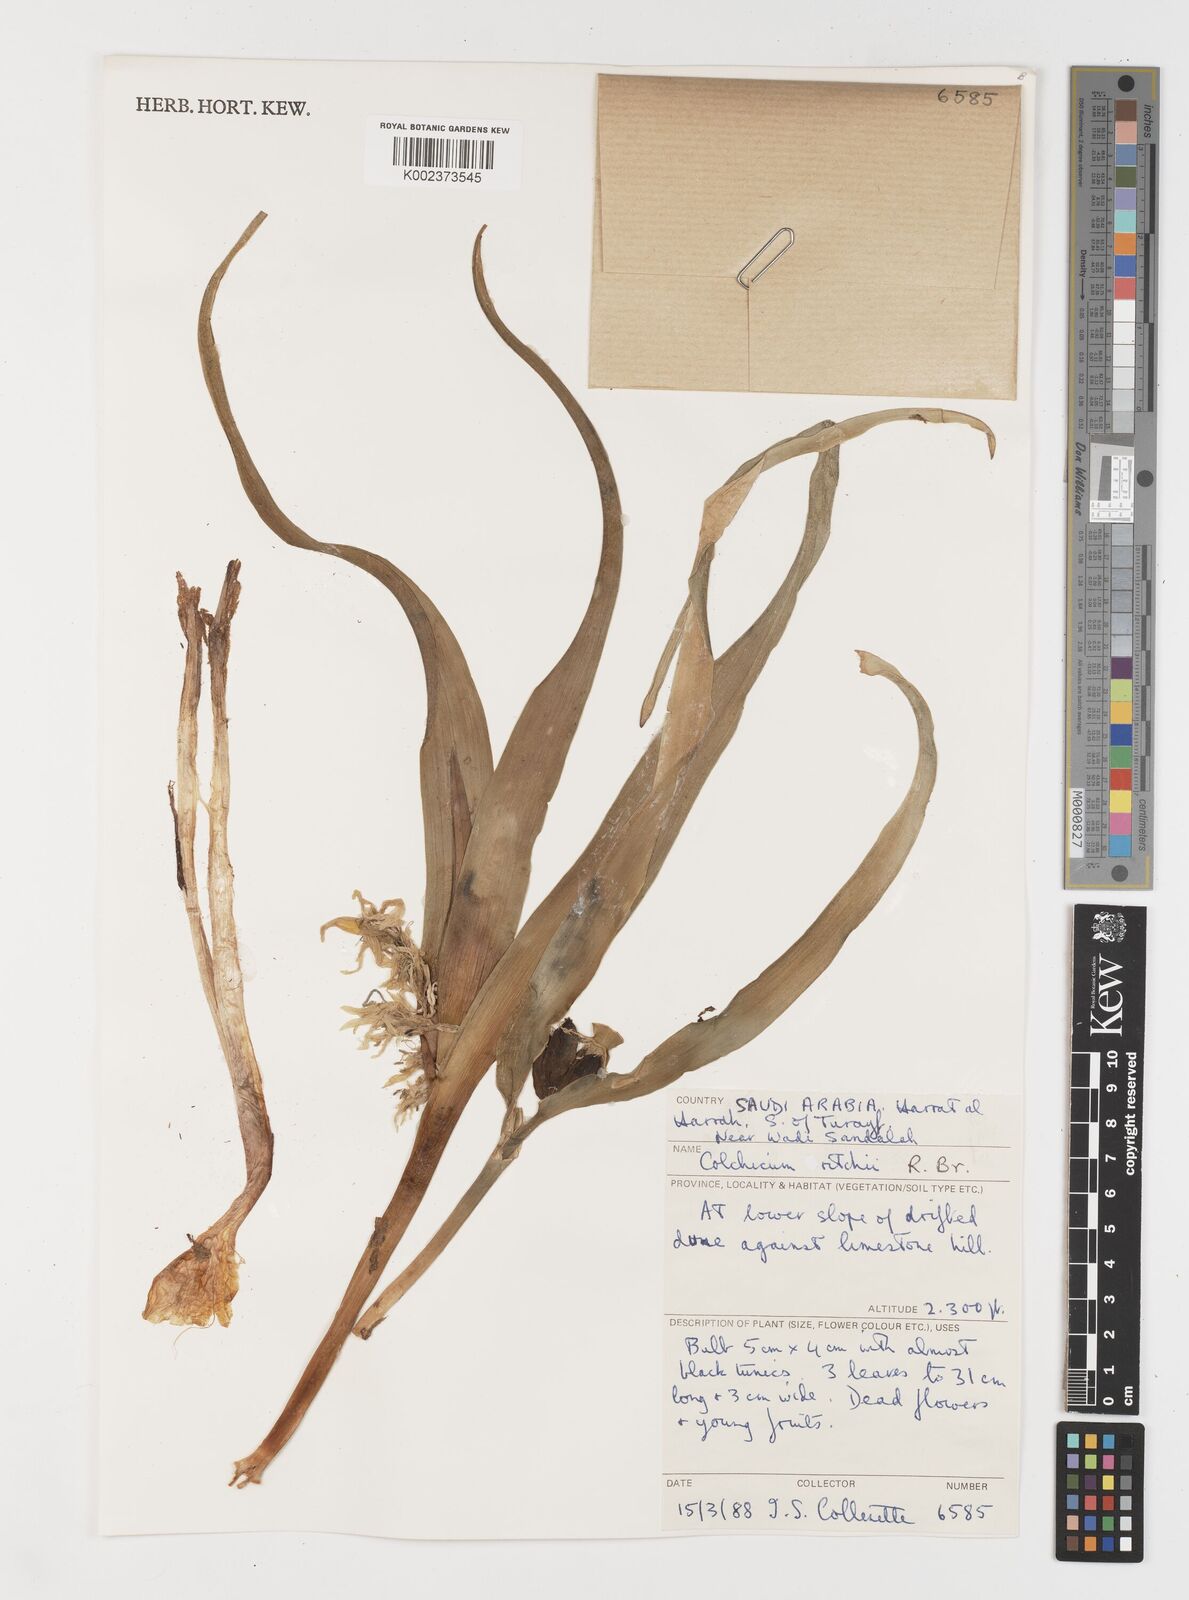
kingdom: Plantae
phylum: Tracheophyta
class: Liliopsida
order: Liliales
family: Colchicaceae
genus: Colchicum
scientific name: Colchicum ritchii
